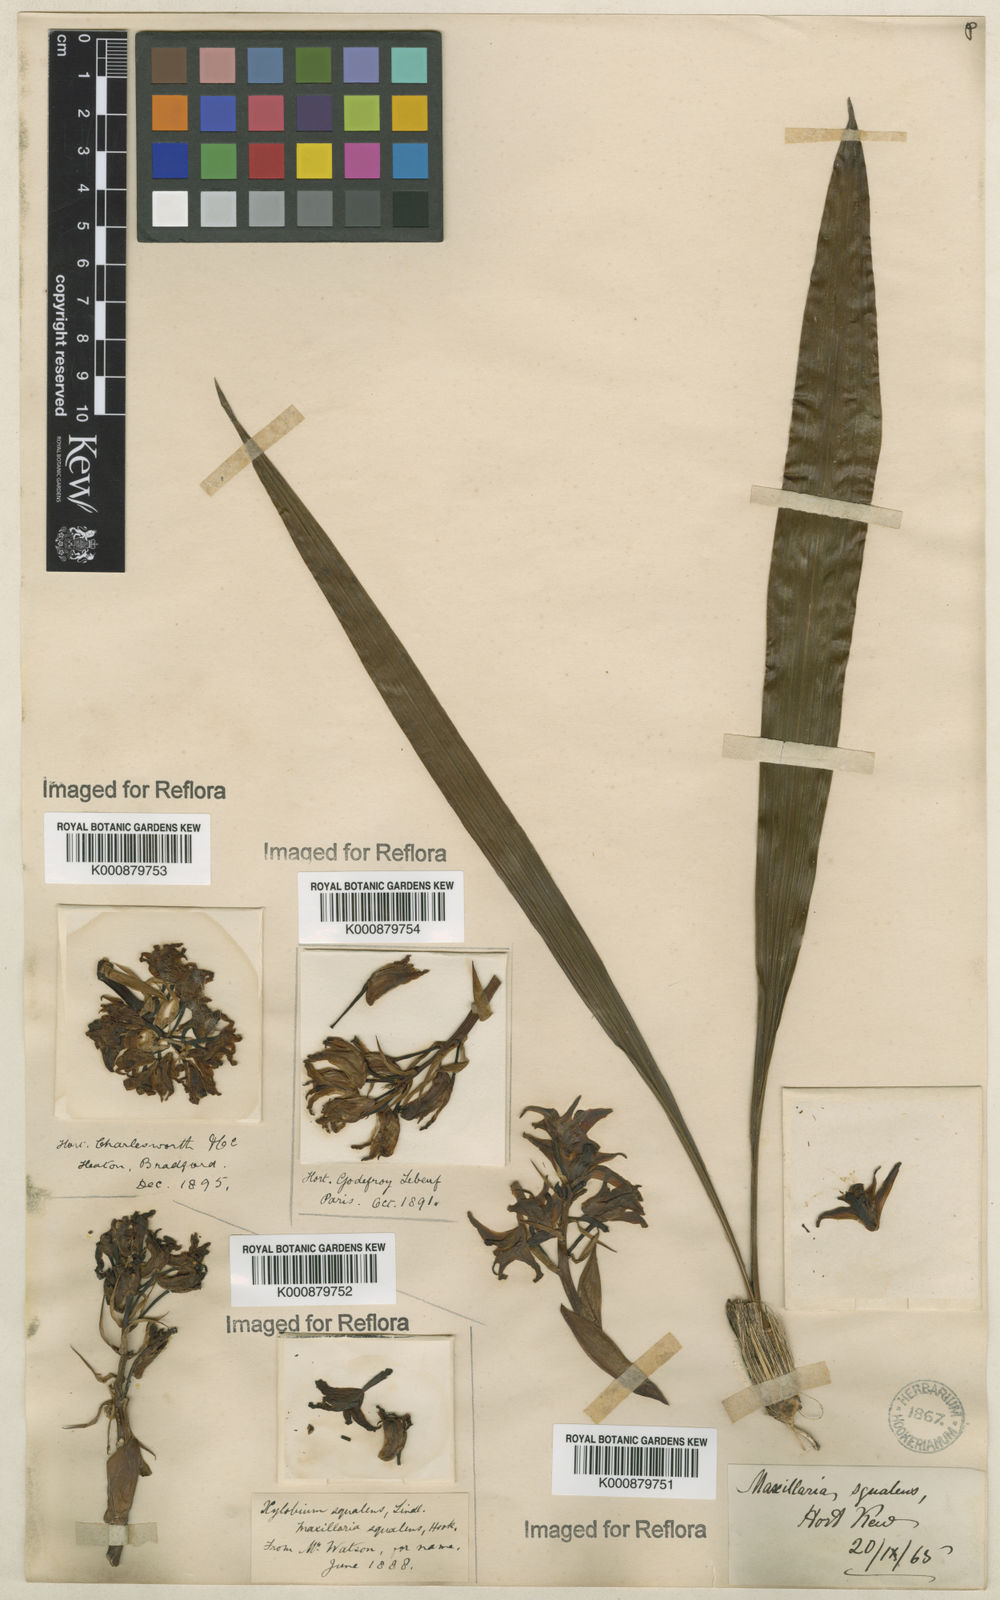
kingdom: Plantae
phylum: Tracheophyta
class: Liliopsida
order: Asparagales
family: Orchidaceae
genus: Xylobium
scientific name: Xylobium
